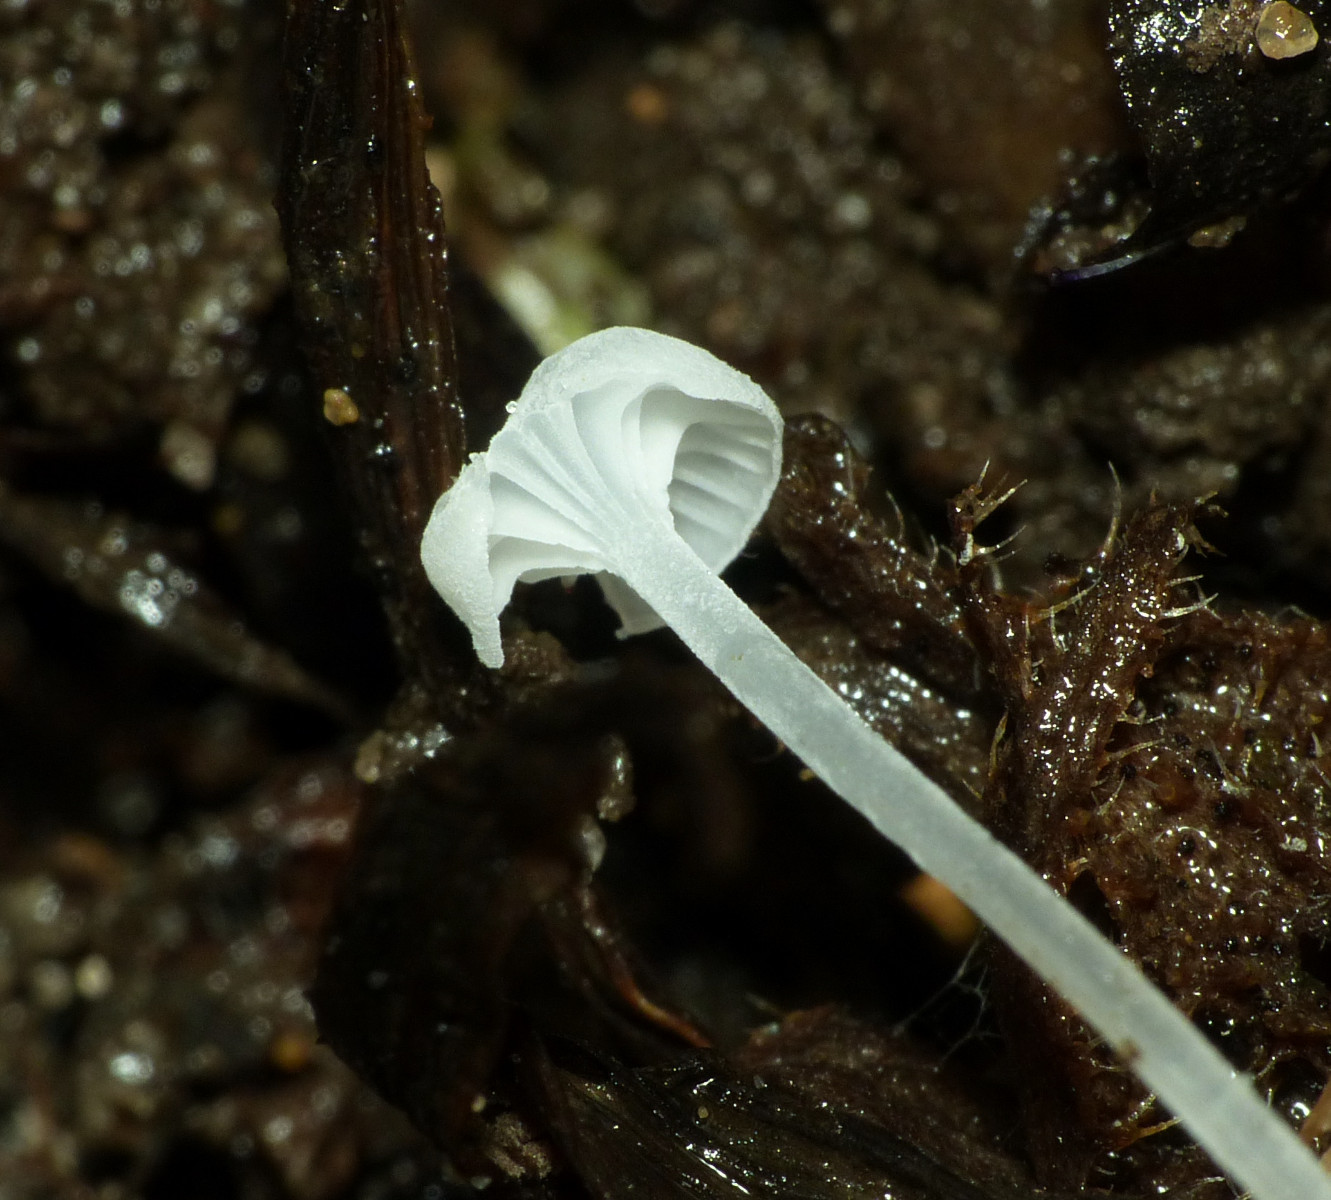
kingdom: Fungi
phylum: Basidiomycota
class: Agaricomycetes
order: Agaricales
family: Mycenaceae
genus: Hemimycena
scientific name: Hemimycena candida
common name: kulsukker-huesvamp
